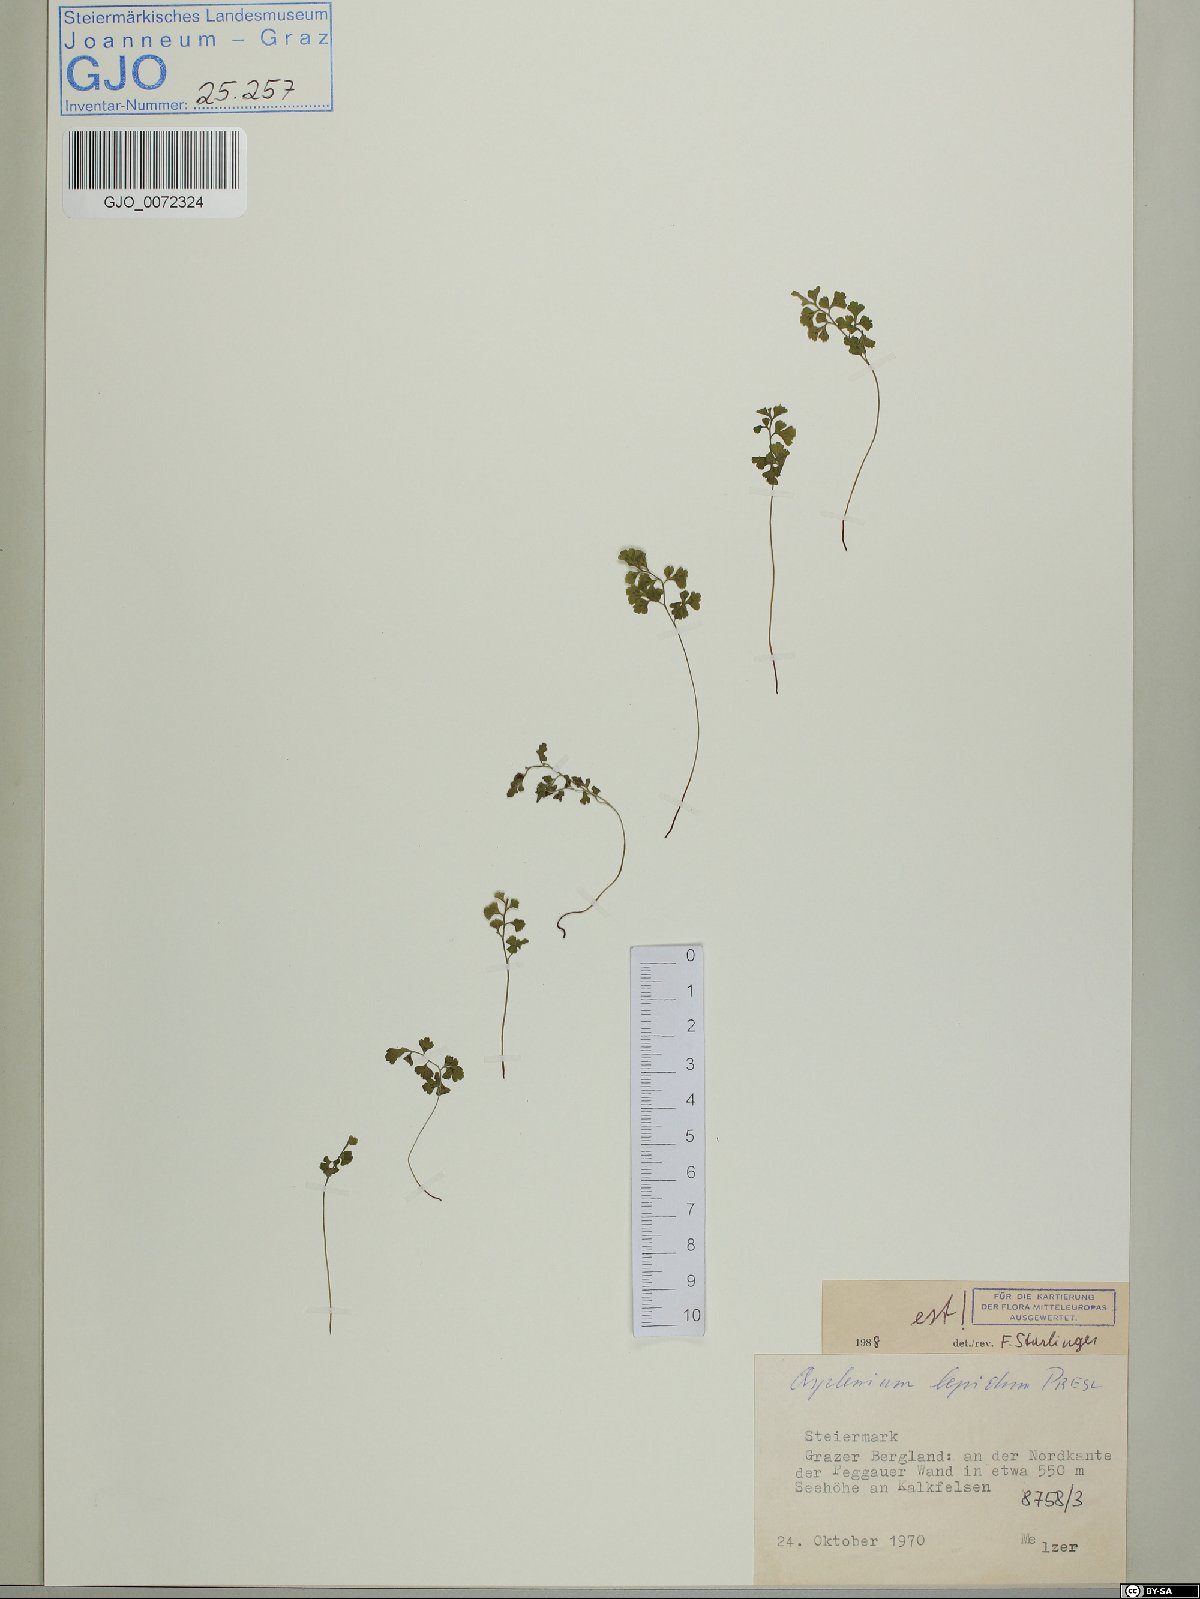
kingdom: Plantae
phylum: Tracheophyta
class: Polypodiopsida
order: Polypodiales
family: Aspleniaceae
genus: Asplenium
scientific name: Asplenium lepidum
